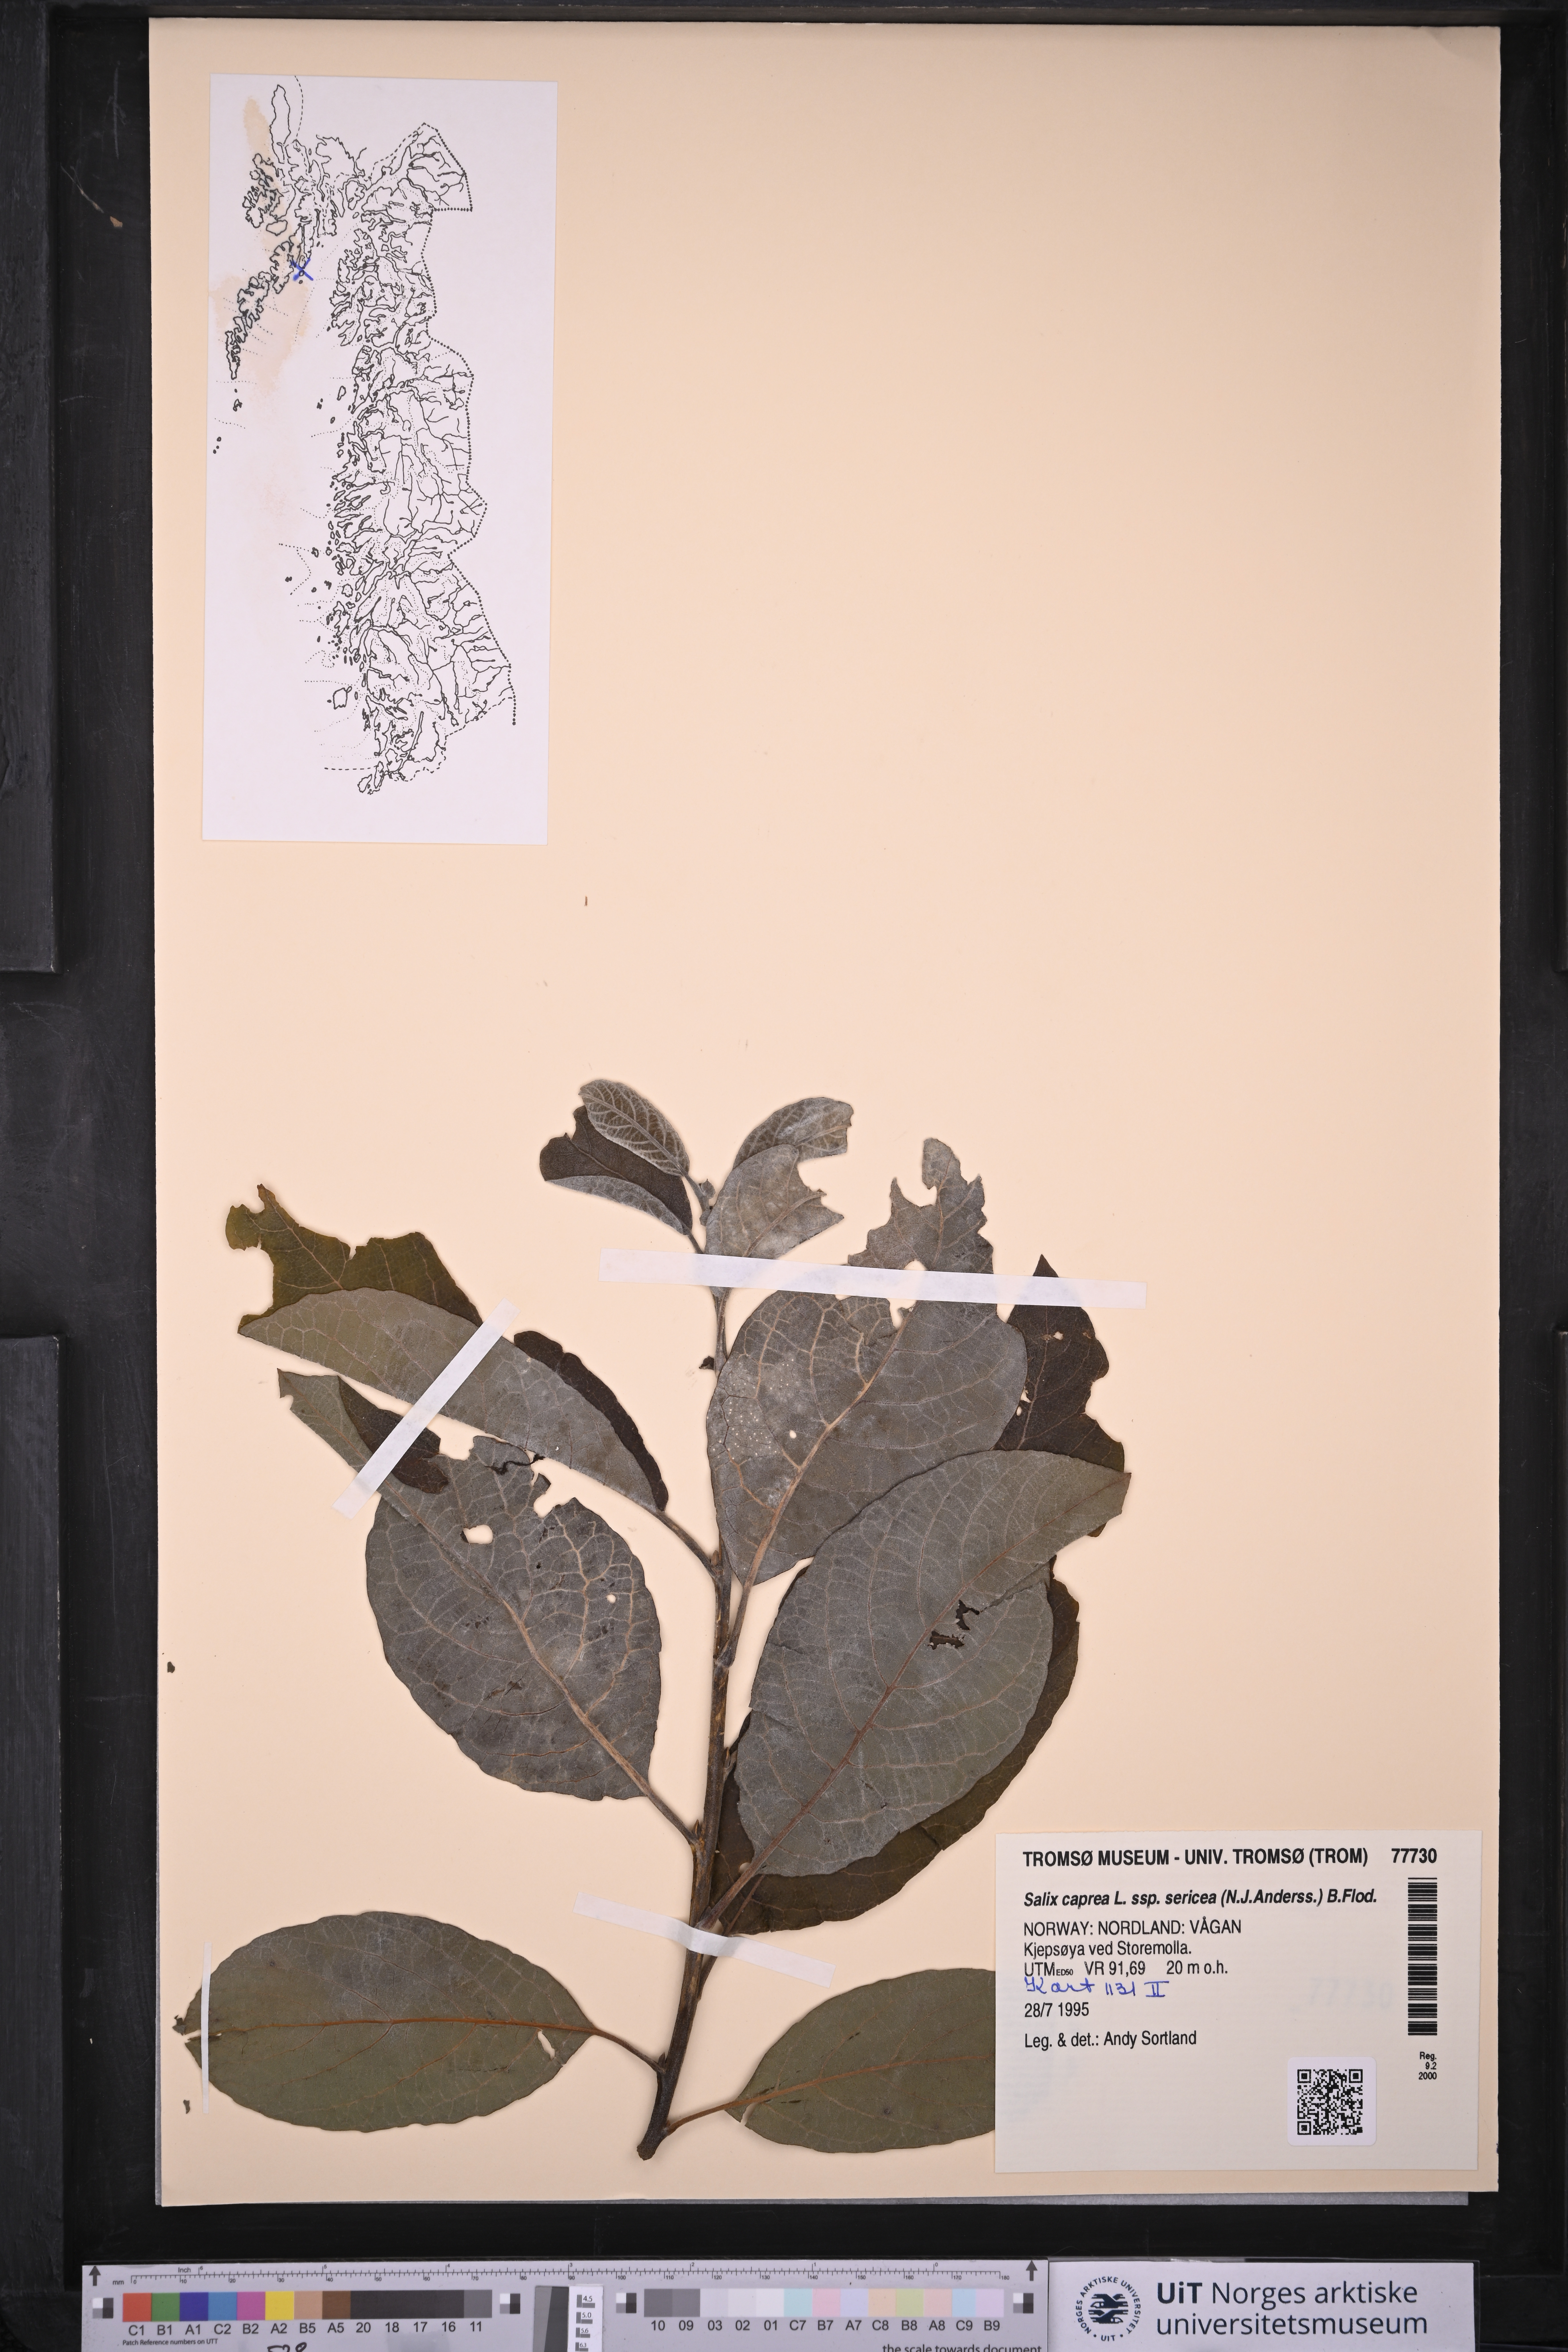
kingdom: Plantae
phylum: Tracheophyta
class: Magnoliopsida
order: Malpighiales
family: Salicaceae
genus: Salix
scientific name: Salix caprea
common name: Goat willow
